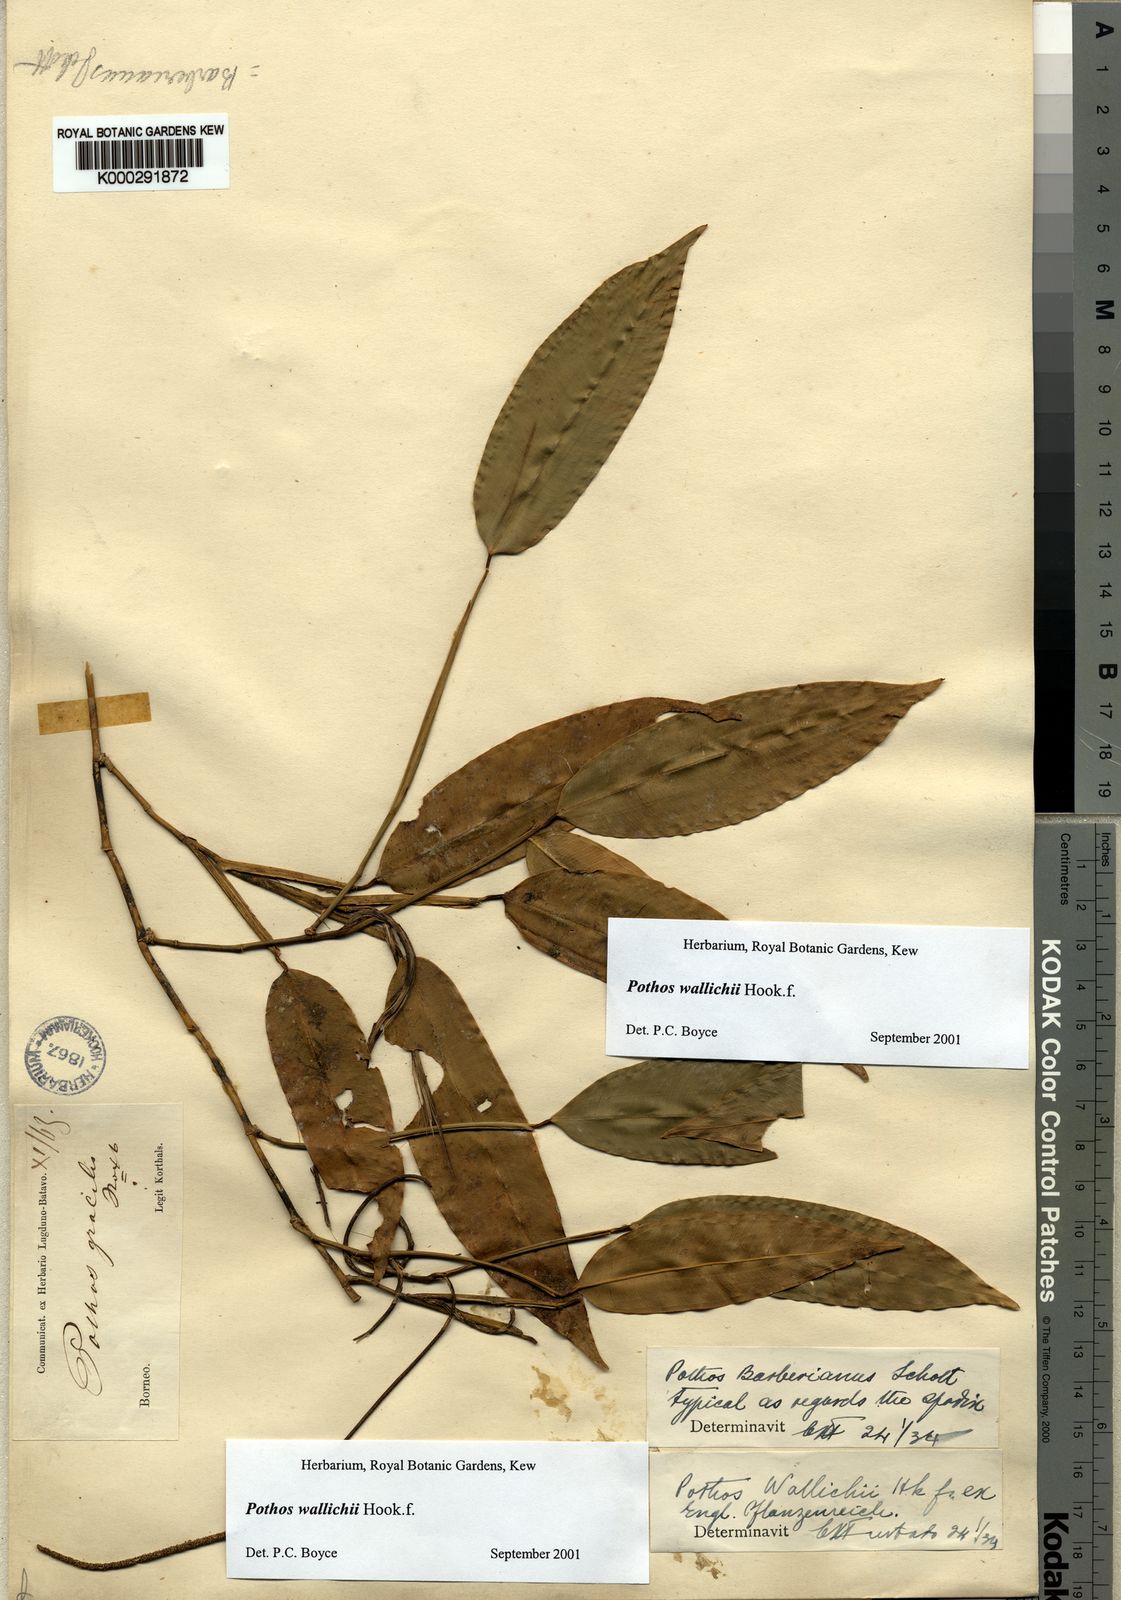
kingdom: Plantae
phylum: Tracheophyta
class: Liliopsida
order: Alismatales
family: Araceae
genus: Pothos
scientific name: Pothos wallichii
